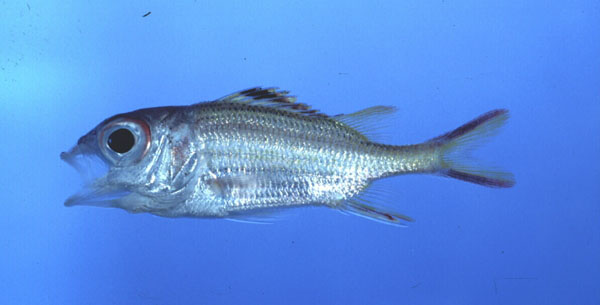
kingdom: Animalia
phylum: Chordata
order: Beryciformes
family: Holocentridae
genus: Neoniphon
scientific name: Neoniphon sammara
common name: Sammara squirrelfish
